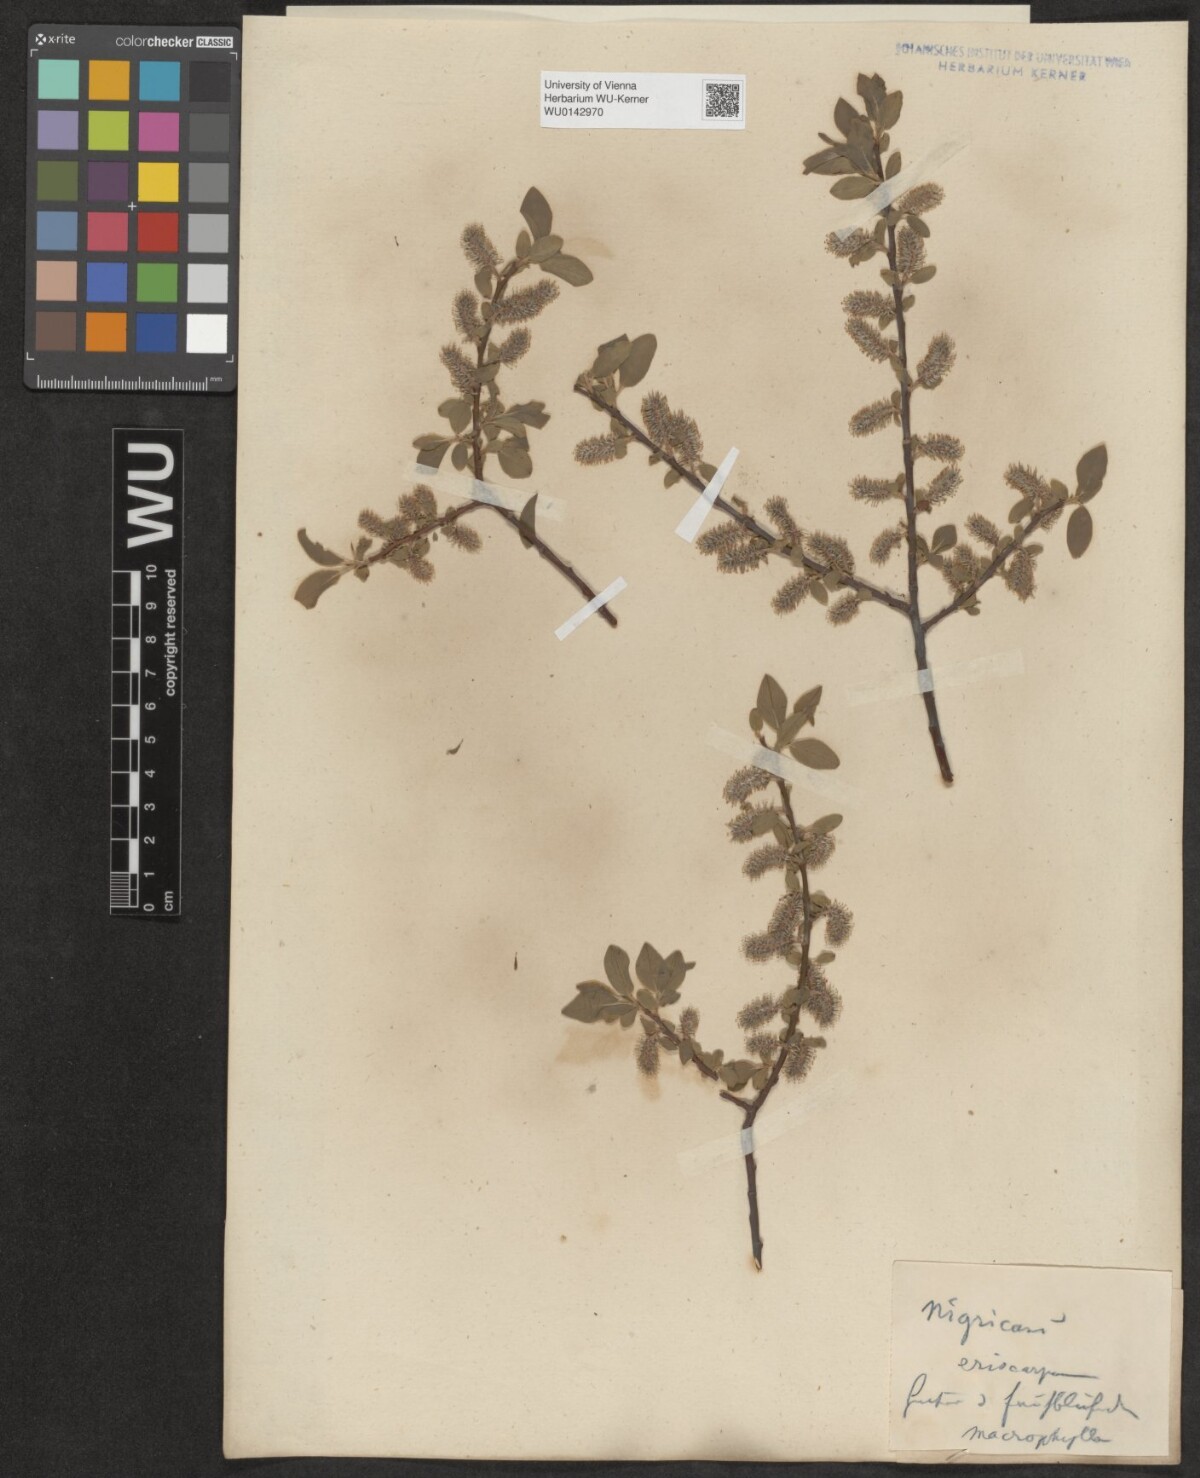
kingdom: Plantae
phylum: Tracheophyta
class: Magnoliopsida
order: Malpighiales
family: Salicaceae
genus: Salix
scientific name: Salix myrsinifolia
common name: Dark-leaved willow
